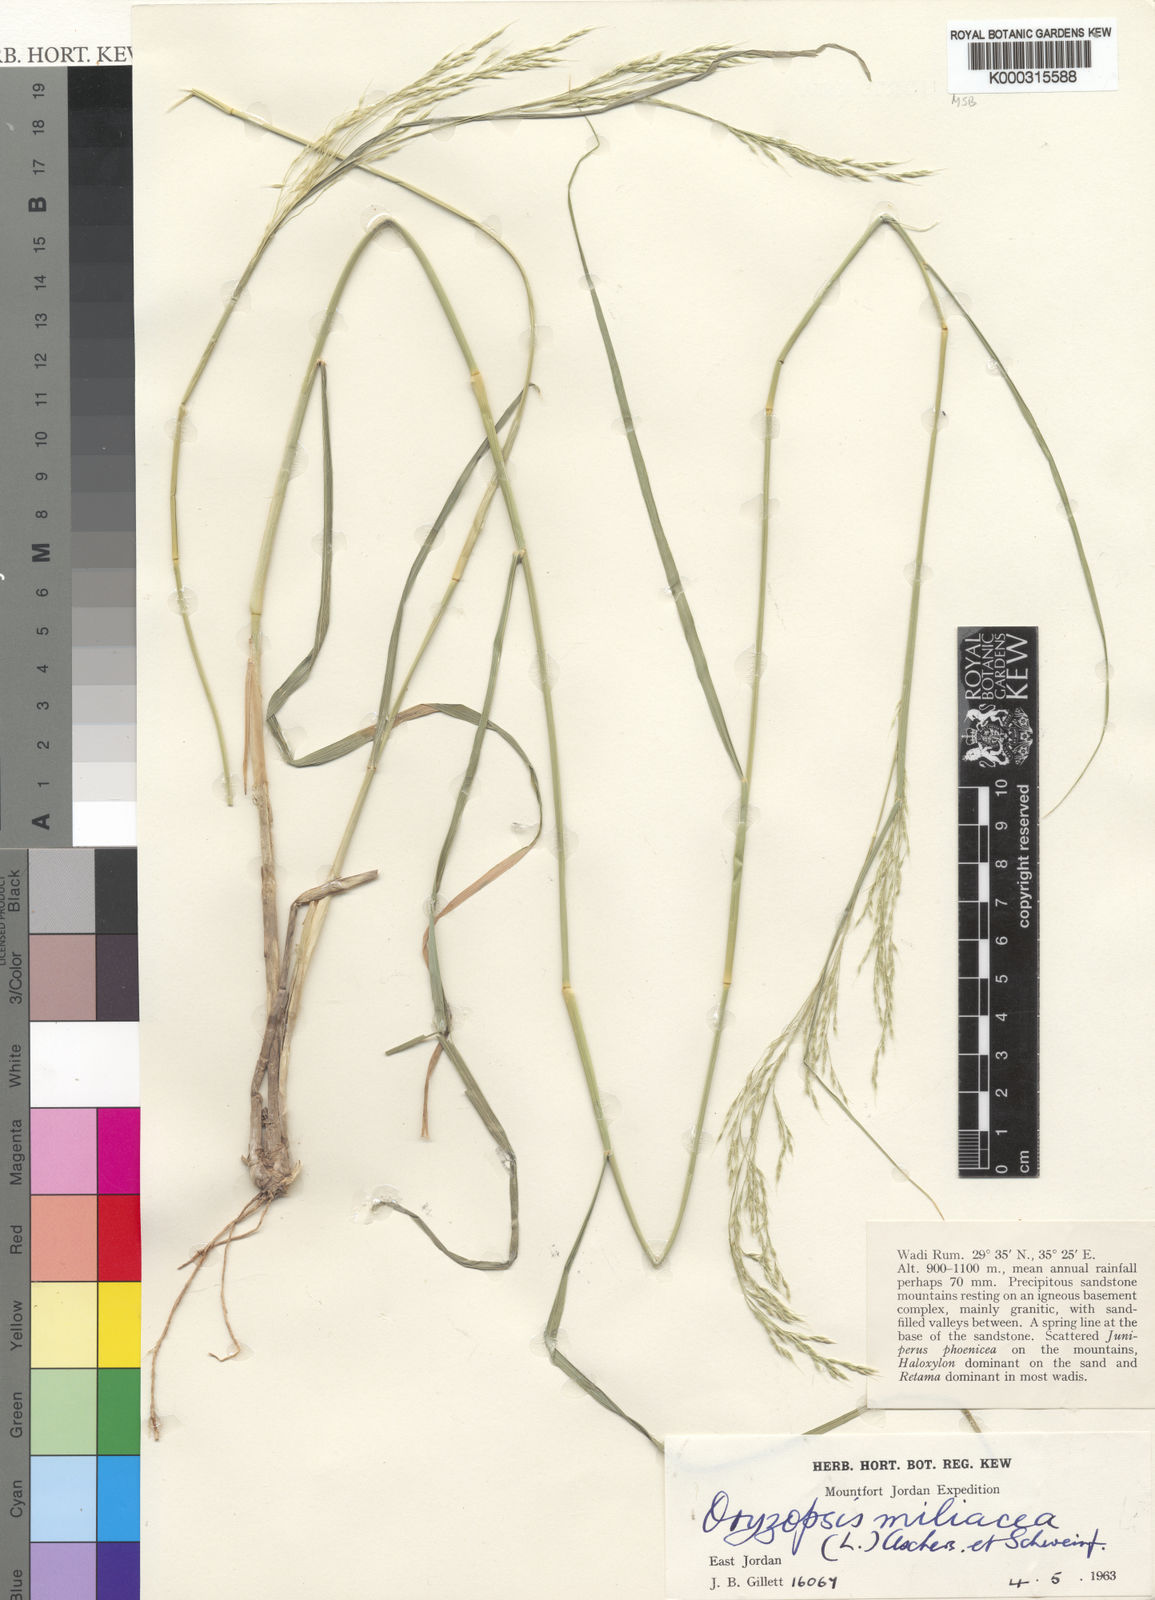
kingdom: Plantae
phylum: Tracheophyta
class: Liliopsida
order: Poales
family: Poaceae
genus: Oloptum
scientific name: Oloptum miliaceum
